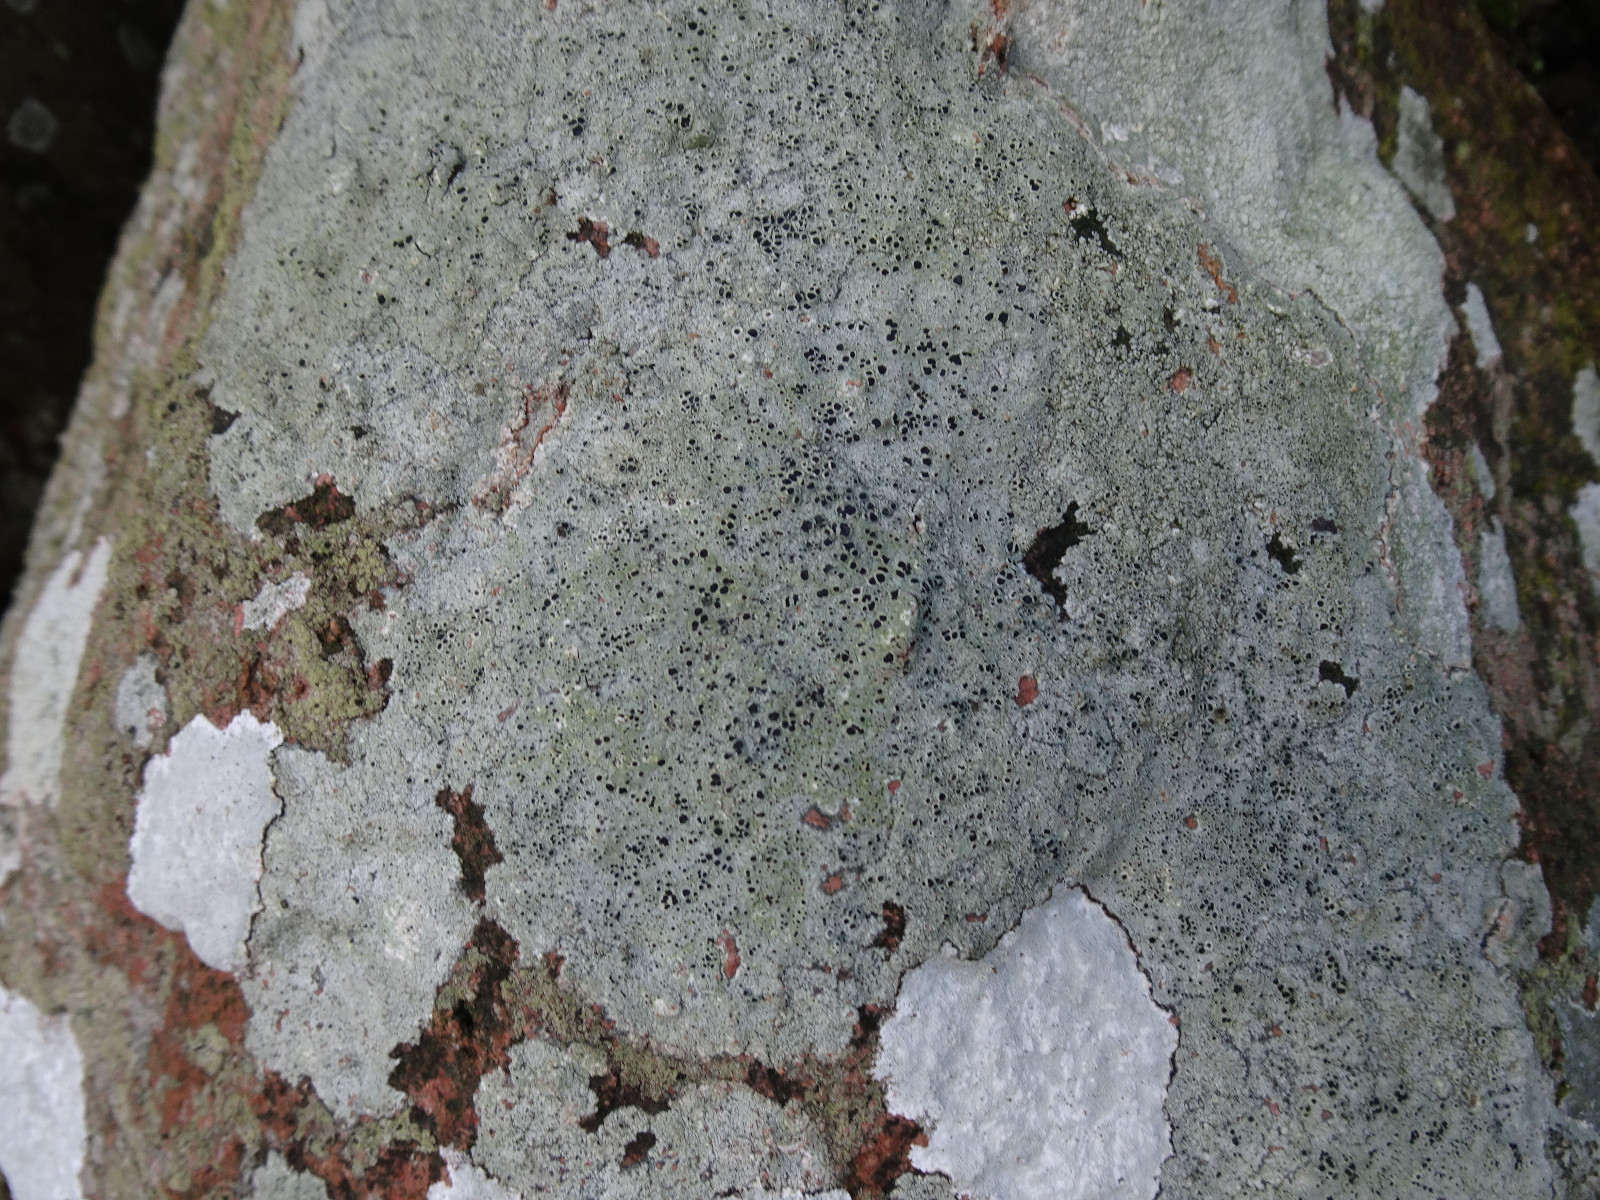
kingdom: Fungi
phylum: Ascomycota
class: Lecanoromycetes
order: Lecanorales
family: Tephromelataceae
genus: Tephromela
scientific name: Tephromela atra
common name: sortfrugtet kantskivelav
